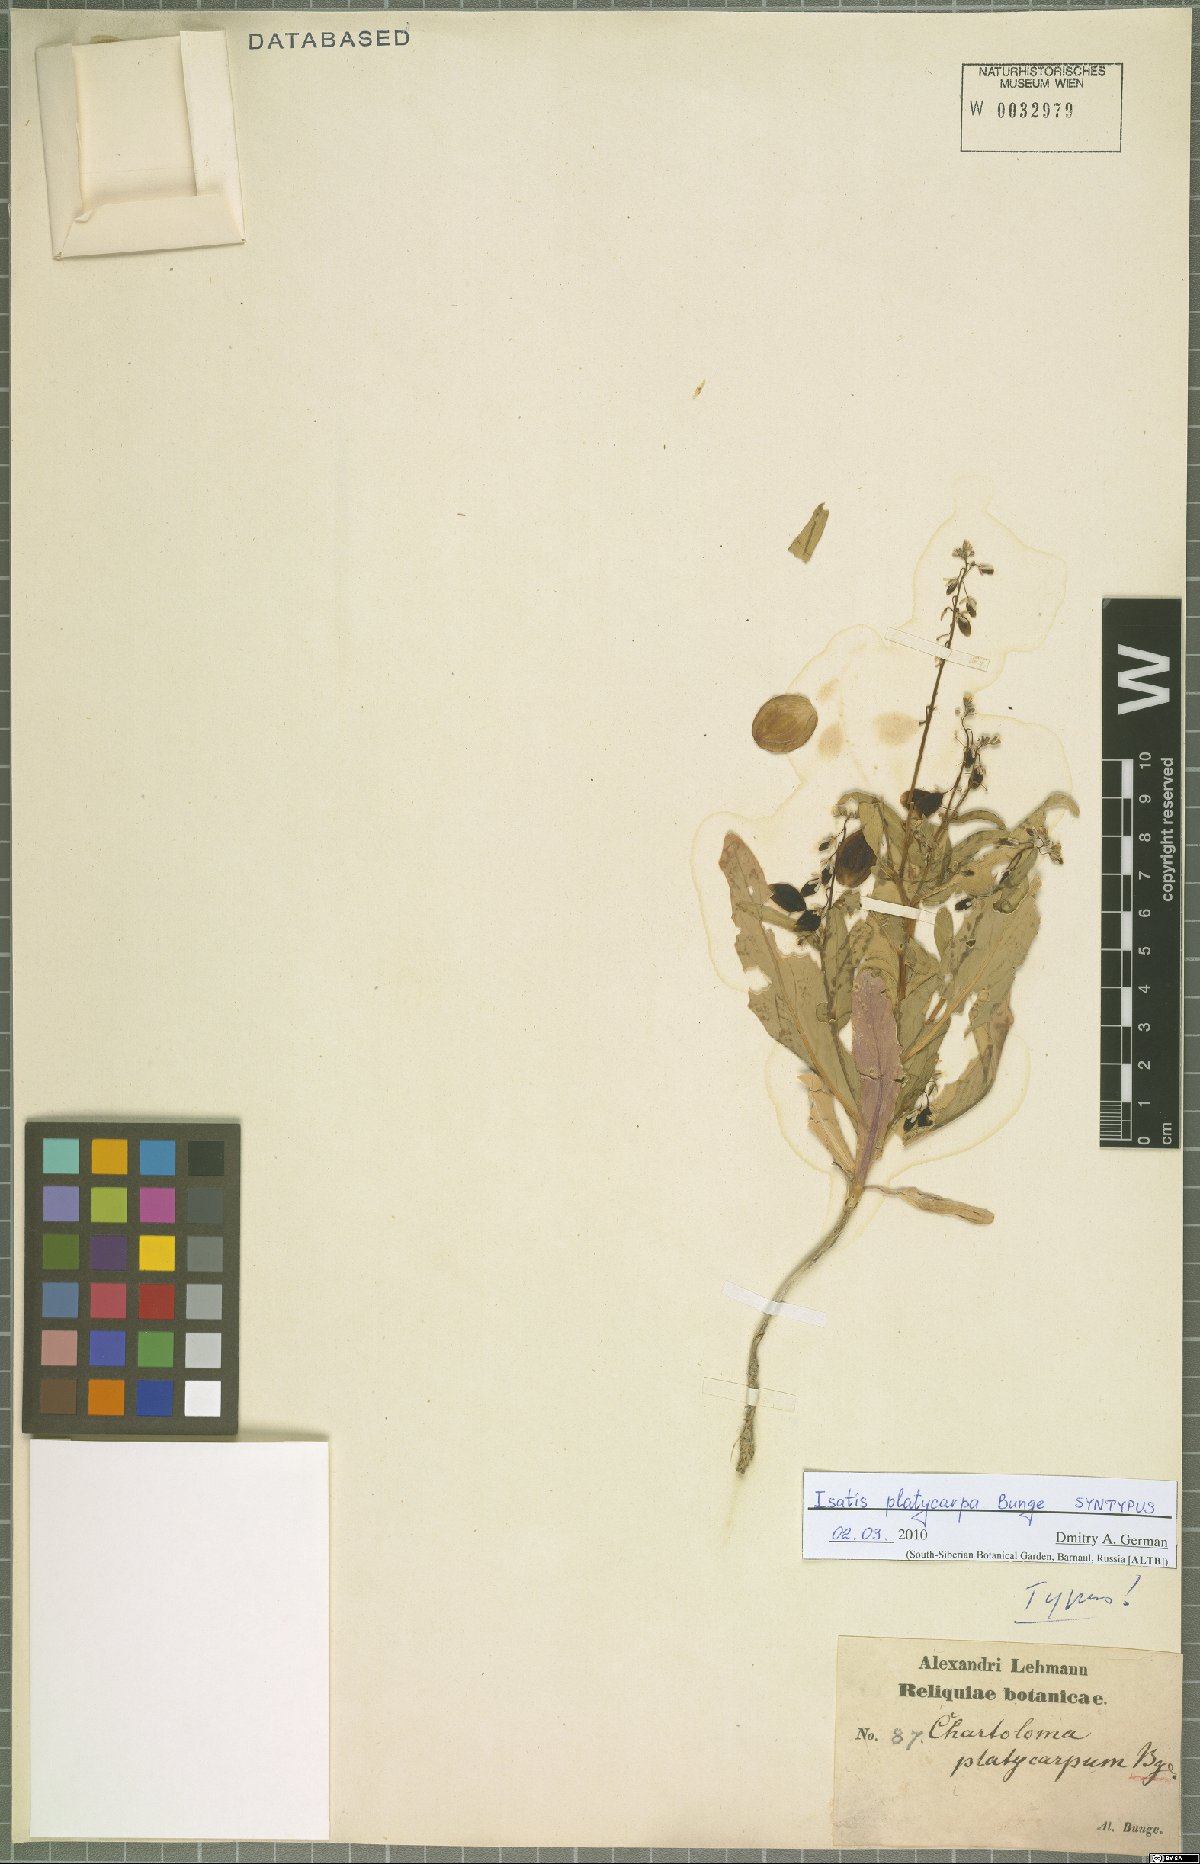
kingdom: Plantae
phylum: Tracheophyta
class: Magnoliopsida
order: Brassicales
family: Brassicaceae
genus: Chartoloma
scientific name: Chartoloma platycarpum
